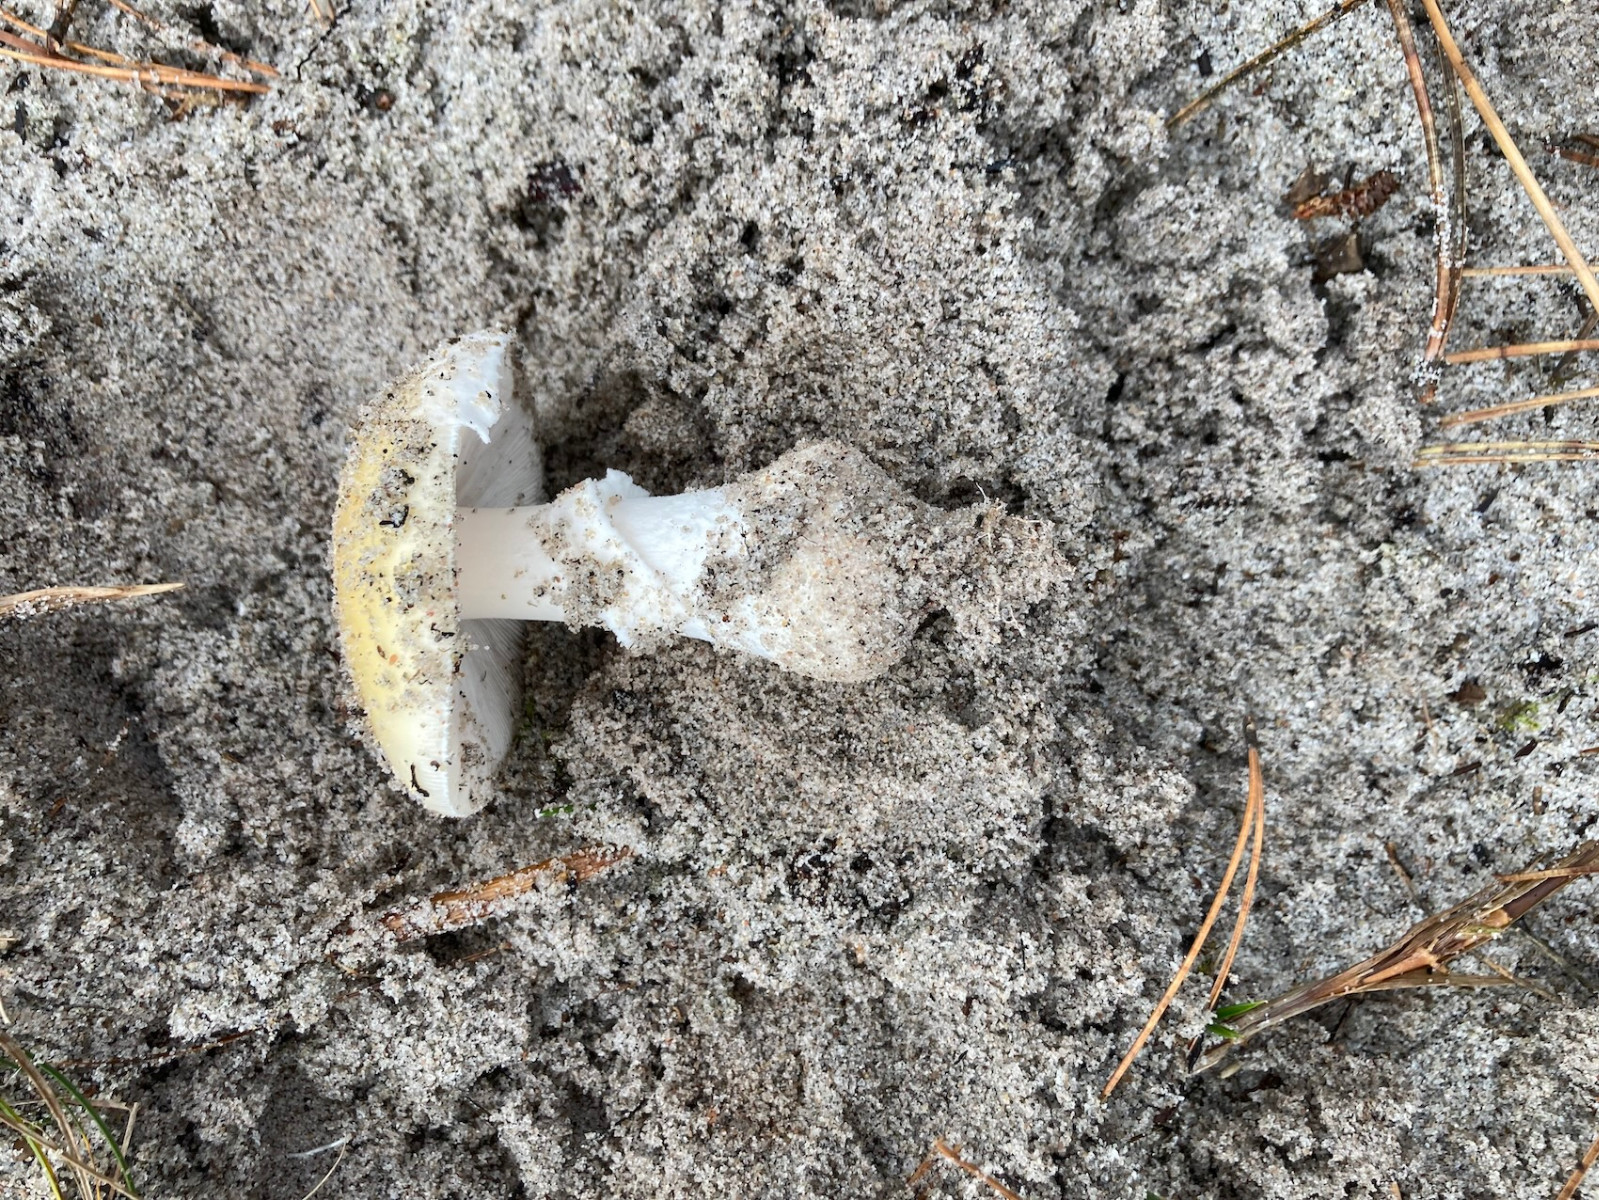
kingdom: Fungi
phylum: Basidiomycota
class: Agaricomycetes
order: Agaricales
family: Amanitaceae
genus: Amanita
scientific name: Amanita gemmata
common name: okkergul fluesvamp
